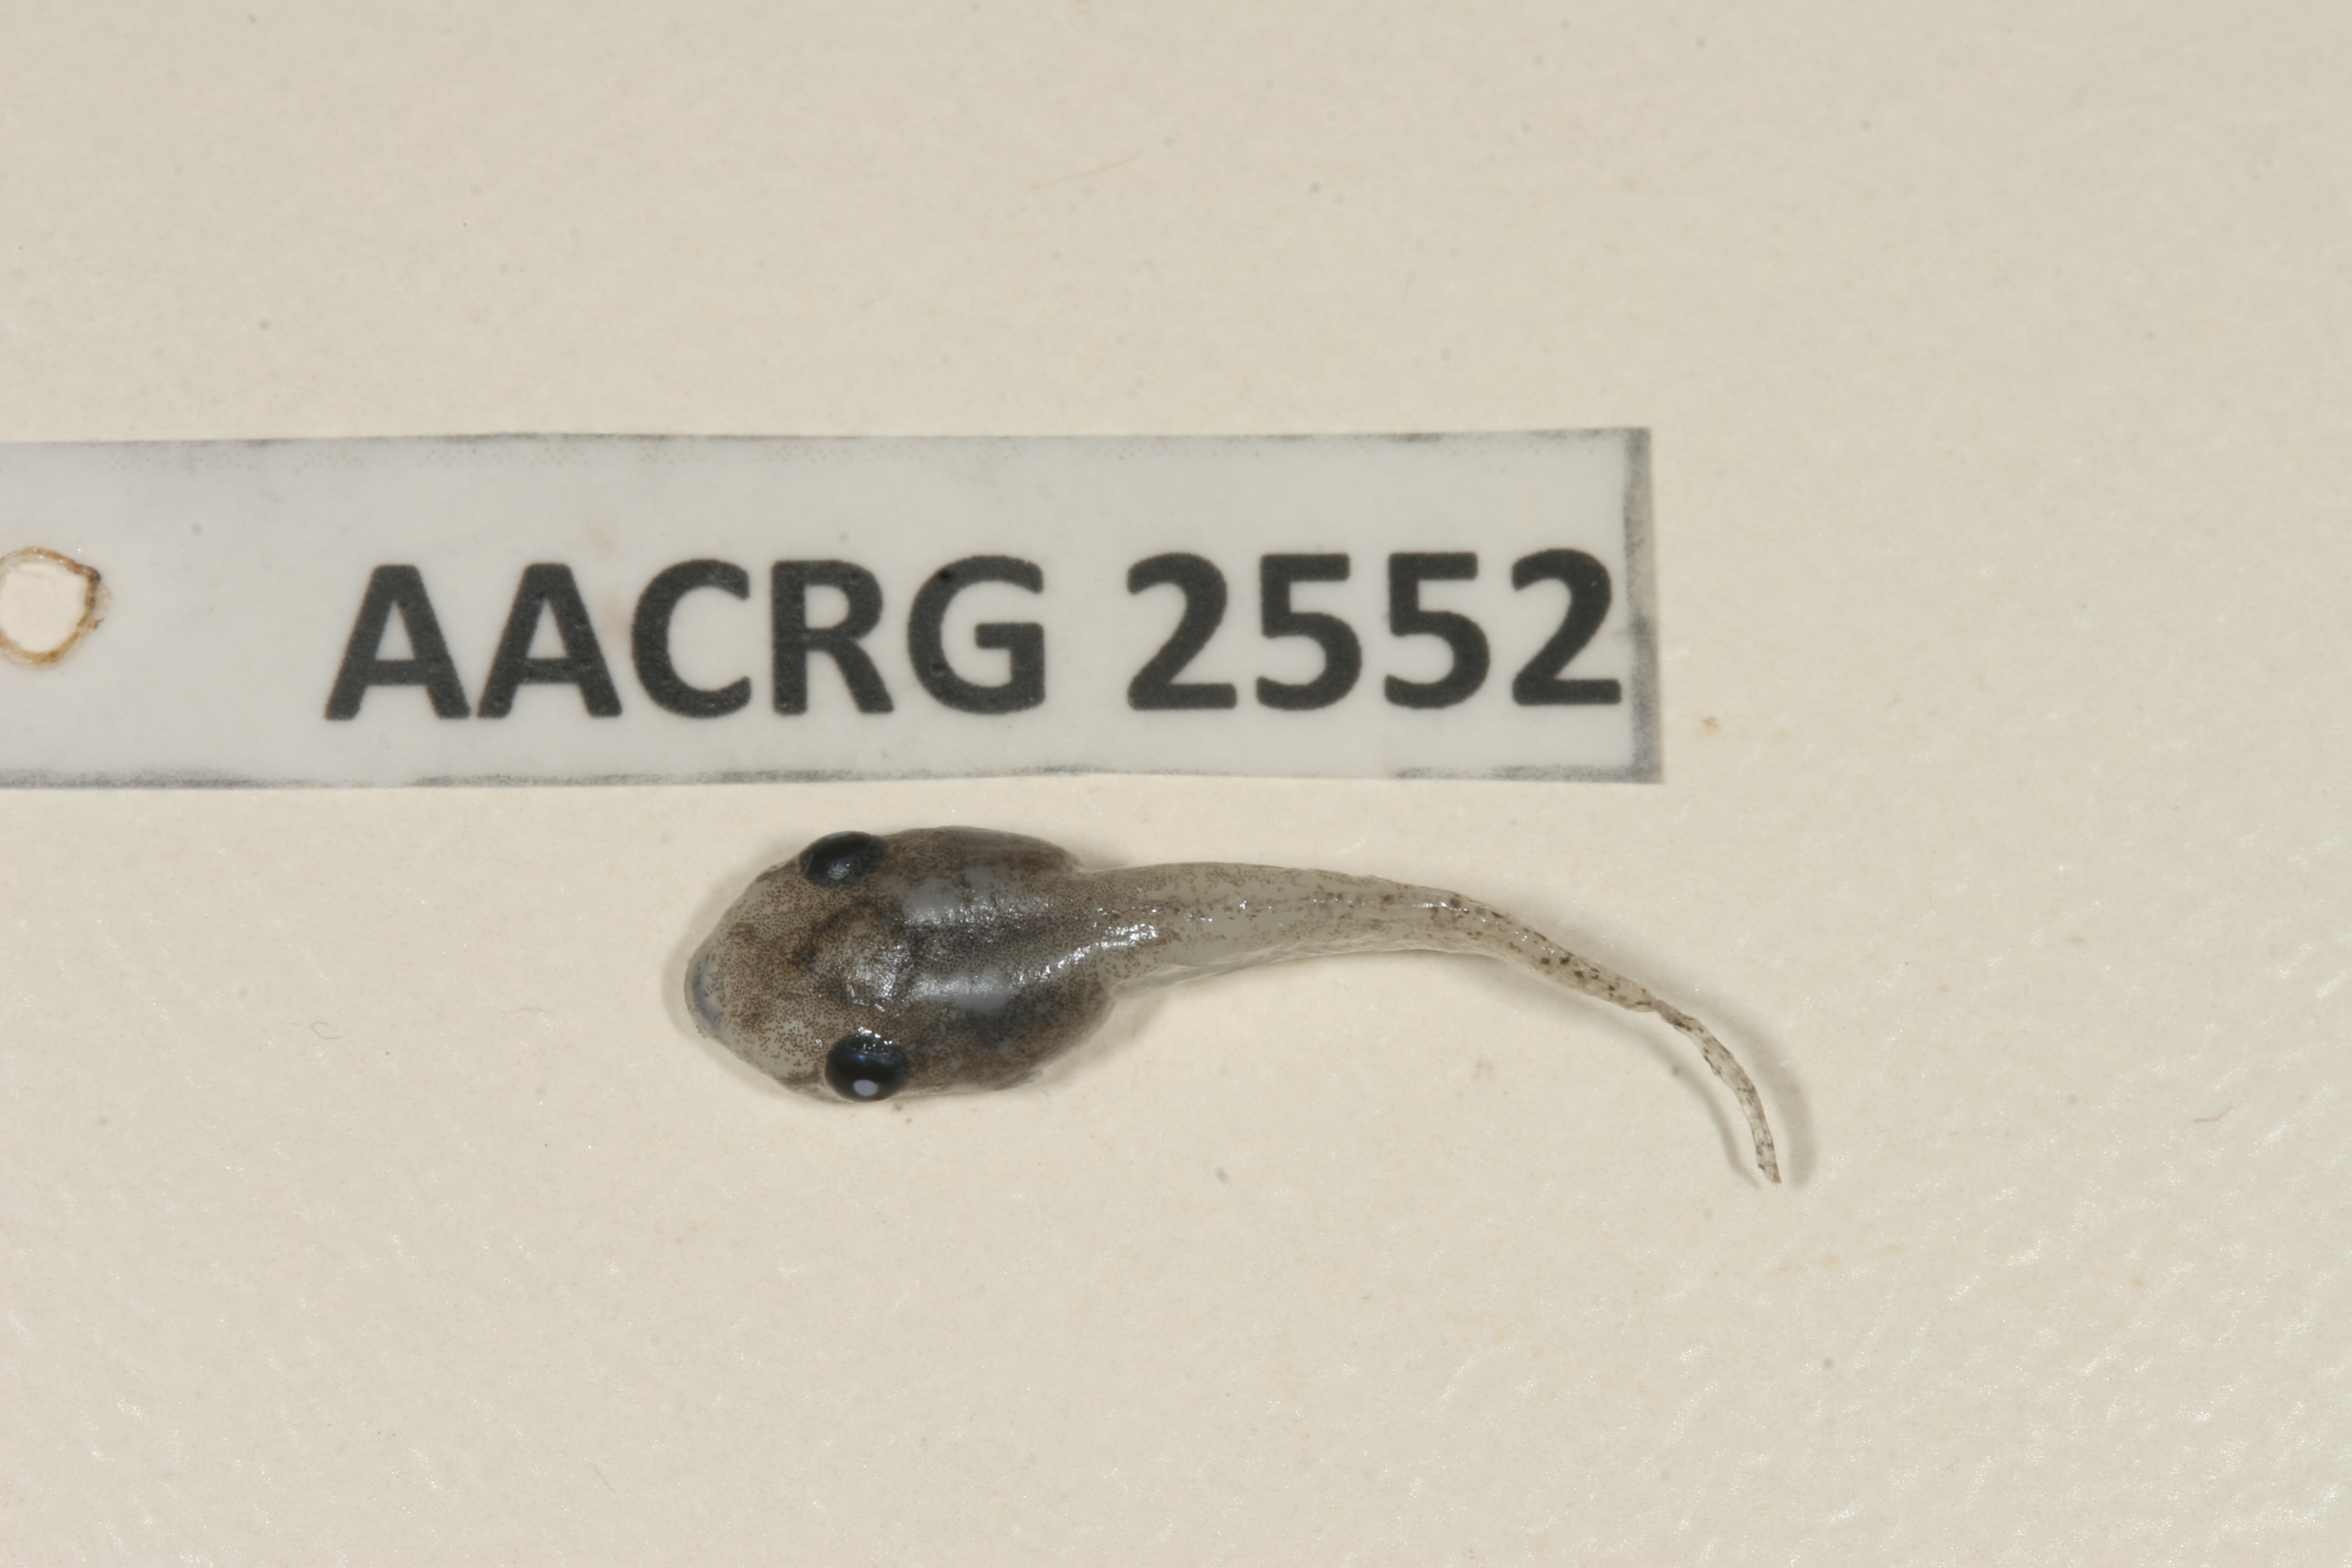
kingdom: Animalia
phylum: Chordata
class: Amphibia
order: Anura
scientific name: Anura
